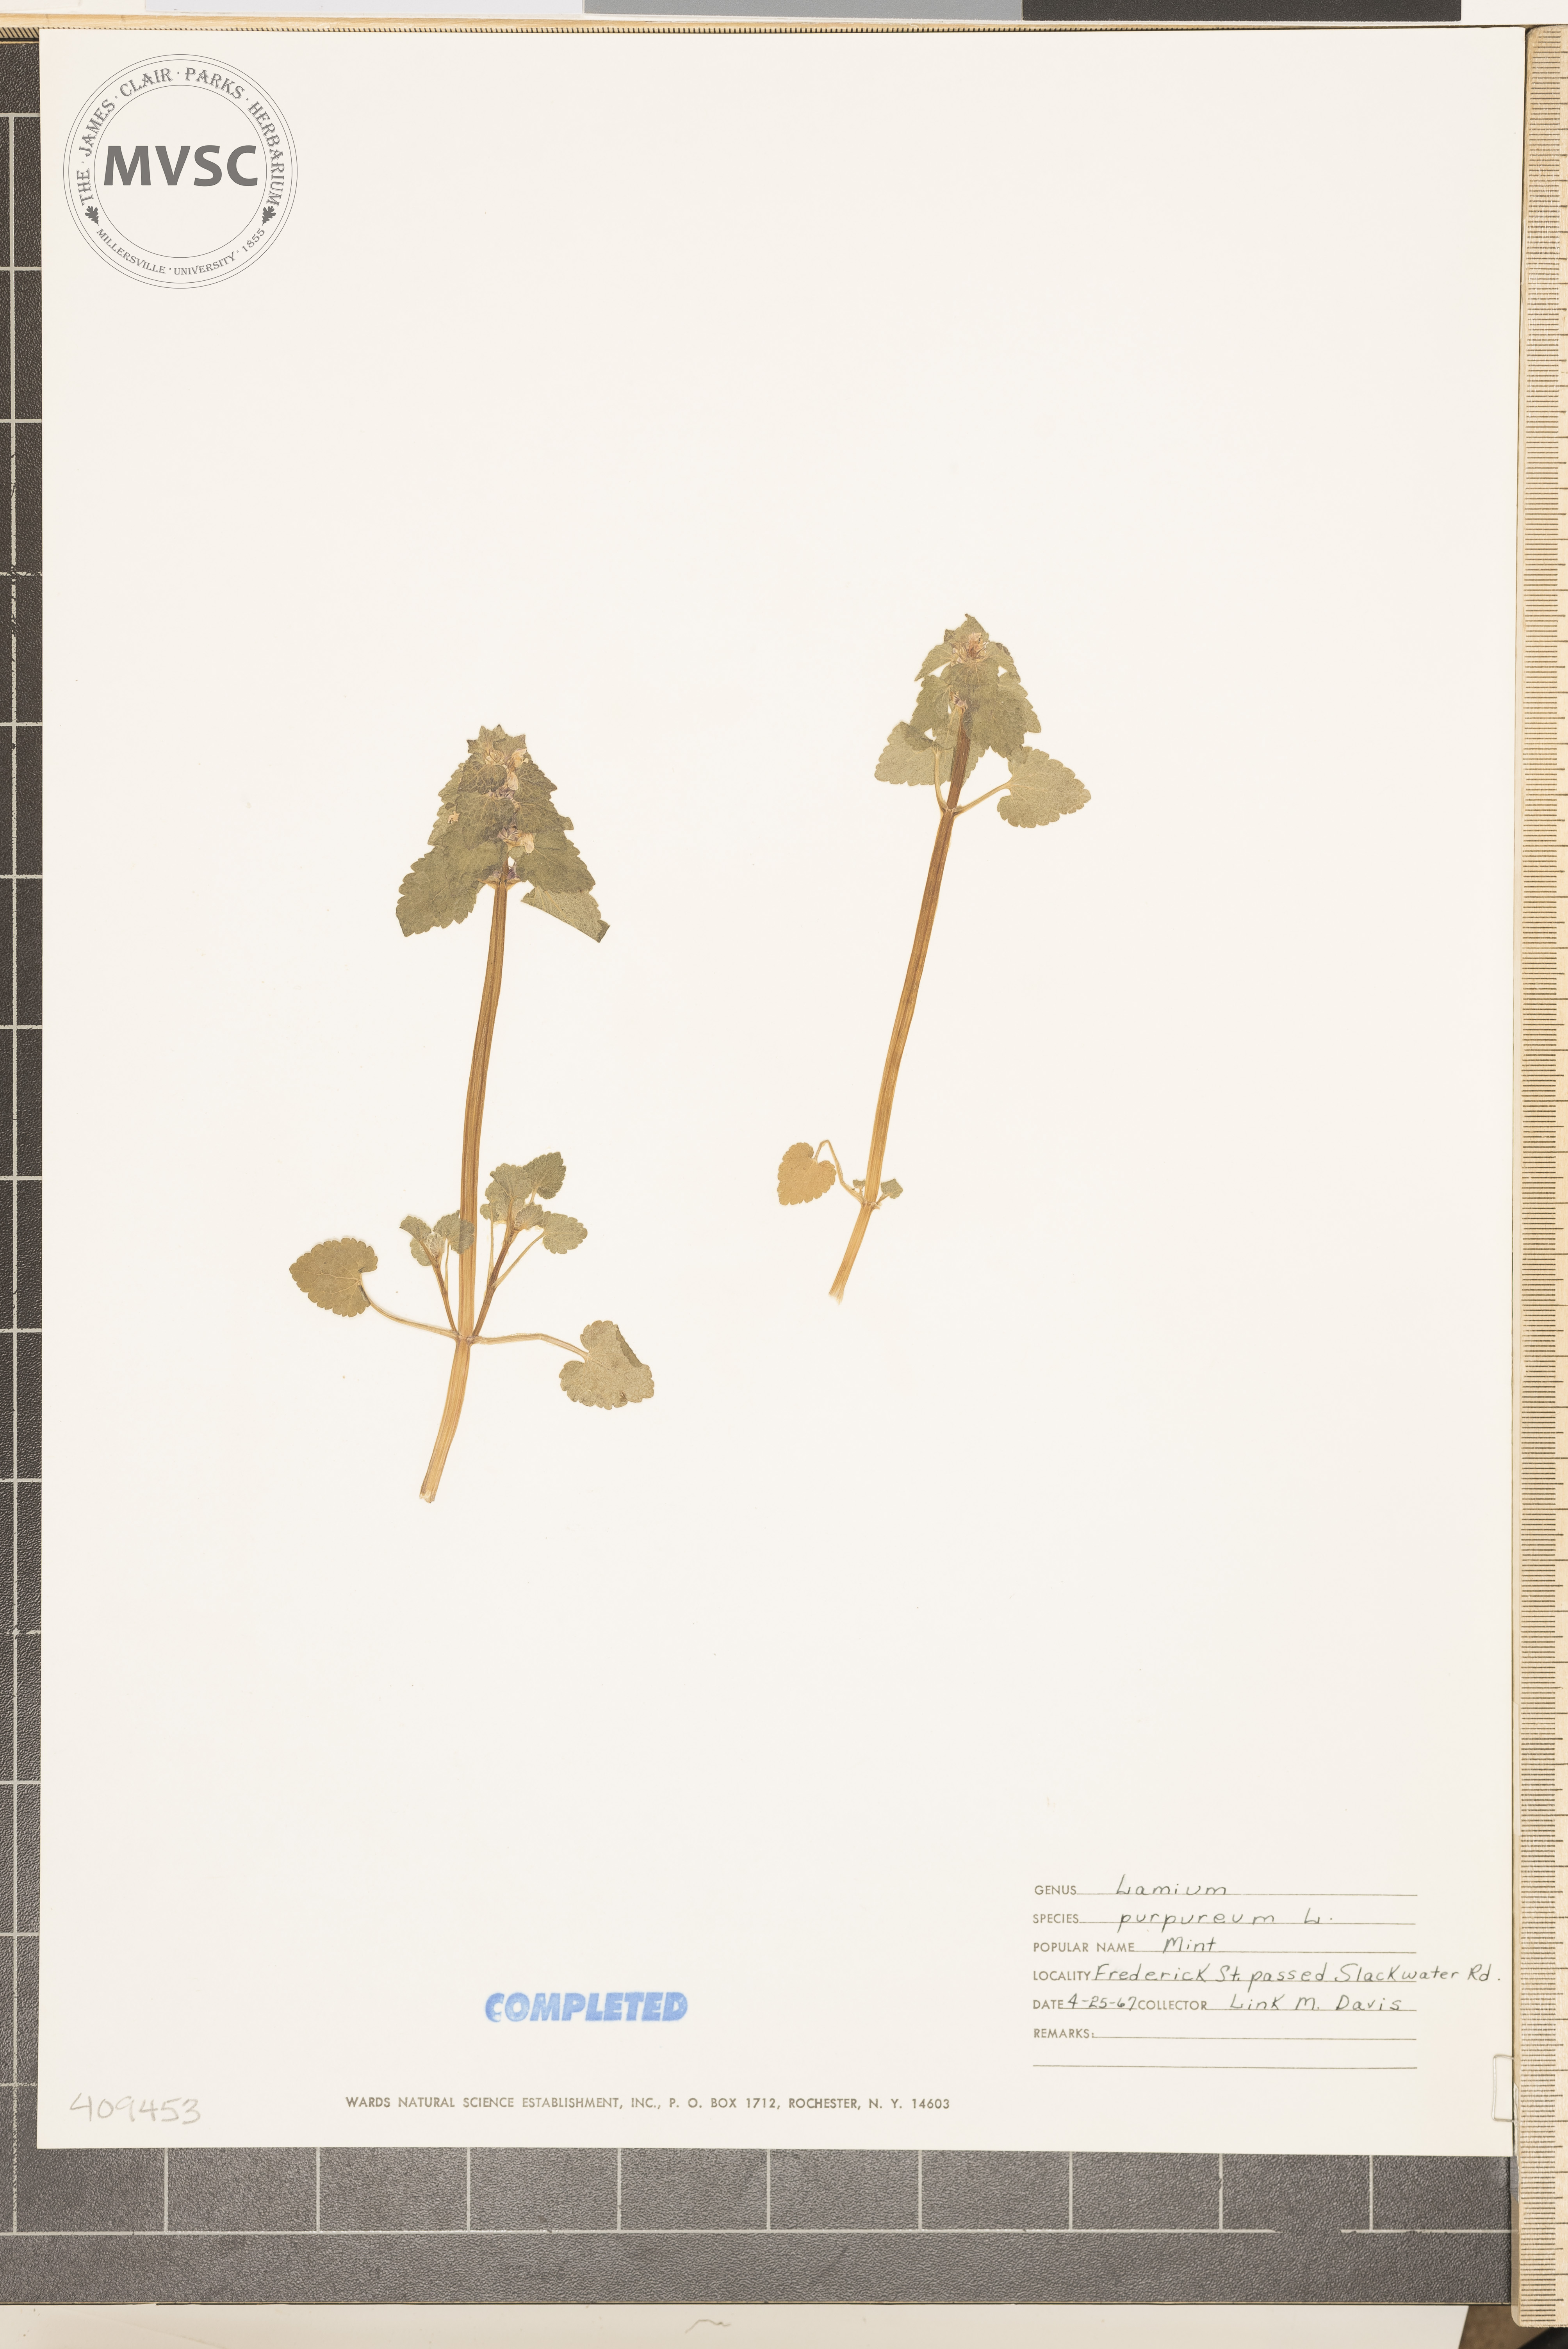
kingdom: Plantae
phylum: Tracheophyta
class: Magnoliopsida
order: Lamiales
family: Lamiaceae
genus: Lamium
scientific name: Lamium purpureum
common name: purple dead-nettle
